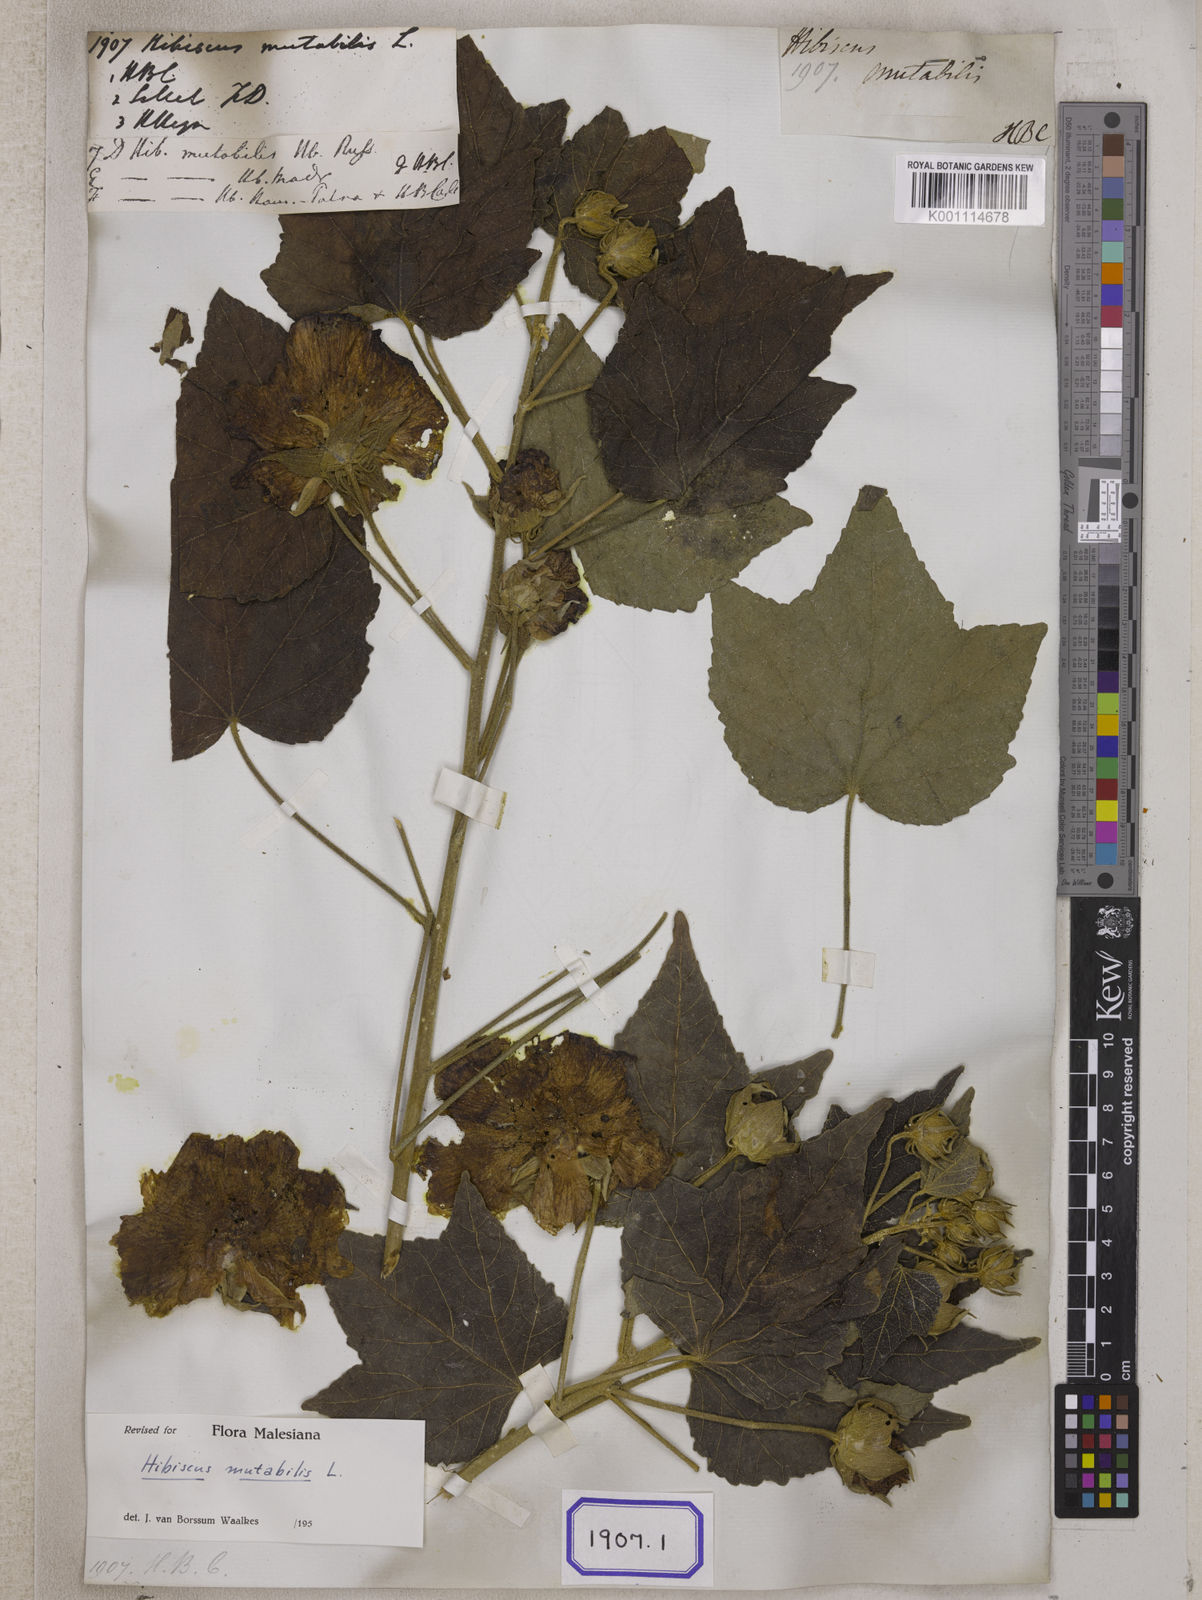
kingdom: Plantae
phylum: Tracheophyta
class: Magnoliopsida
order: Malvales
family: Malvaceae
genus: Hibiscus
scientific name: Hibiscus mutabilis
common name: Dixie rosemallow
